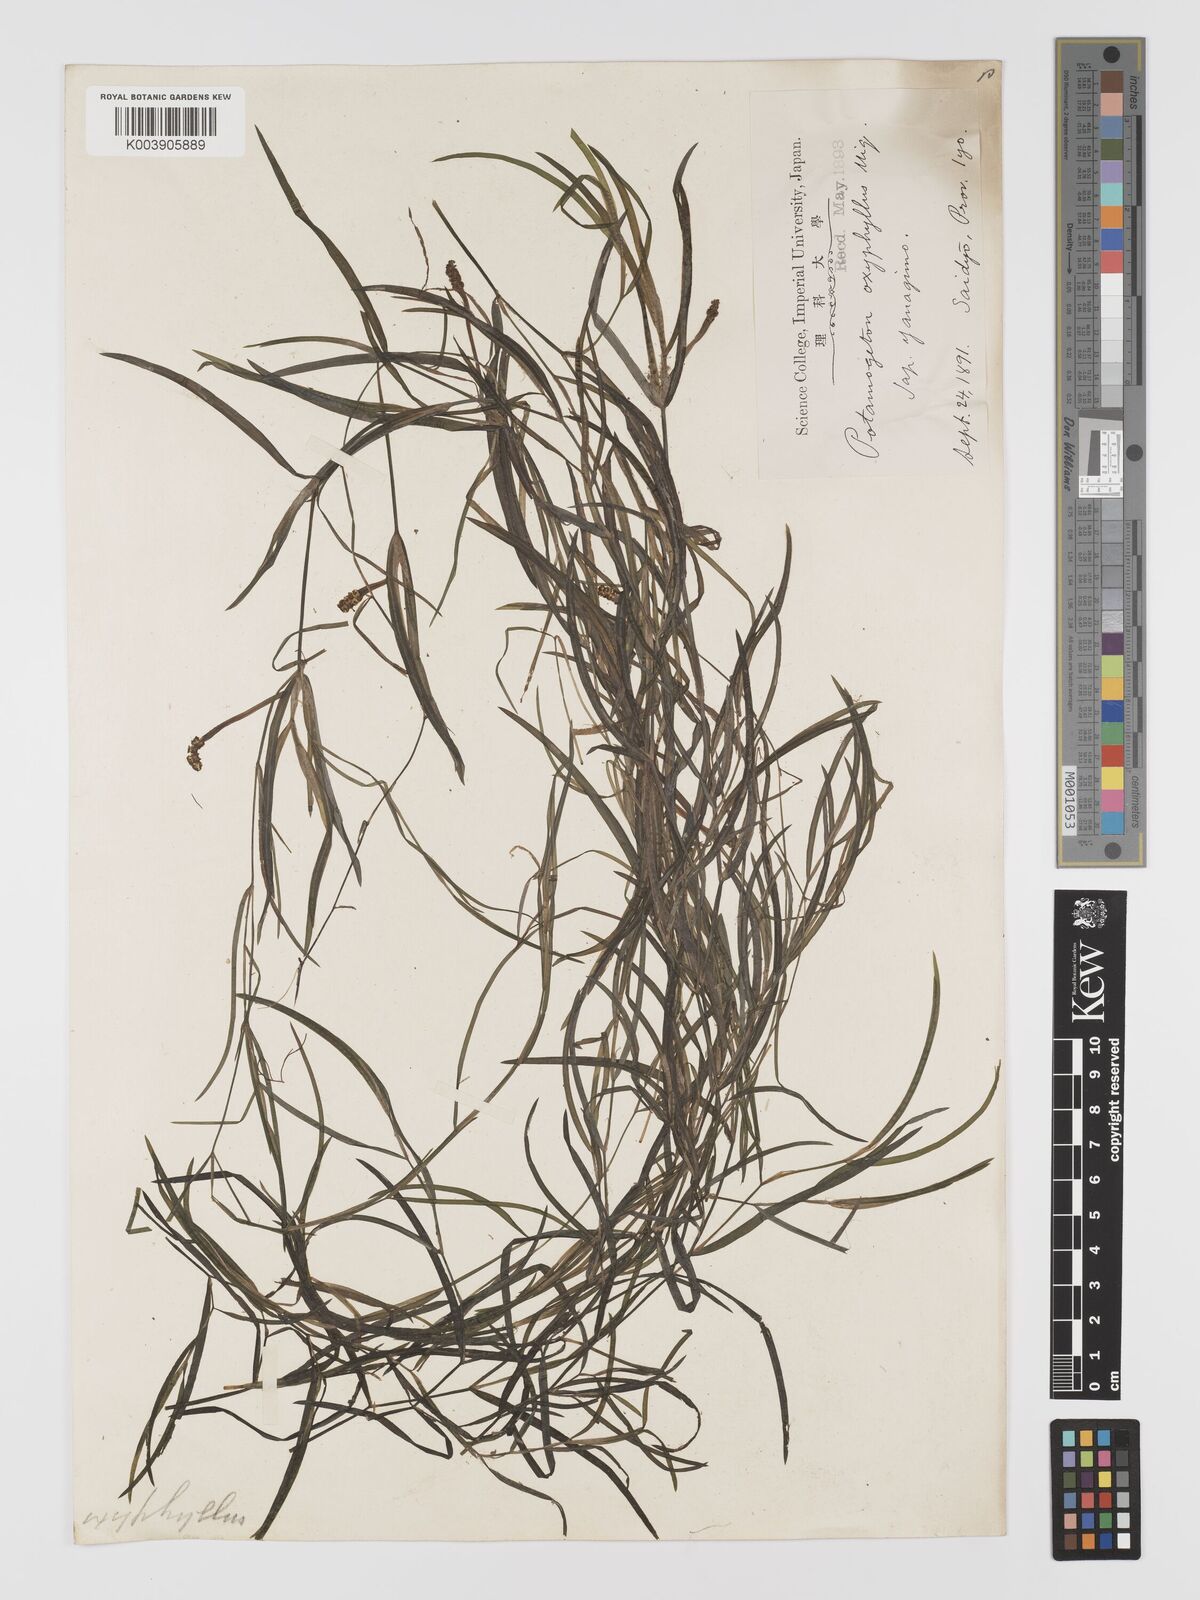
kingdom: Plantae
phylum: Tracheophyta
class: Liliopsida
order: Alismatales
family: Potamogetonaceae
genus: Potamogeton
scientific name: Potamogeton oxyphyllus
